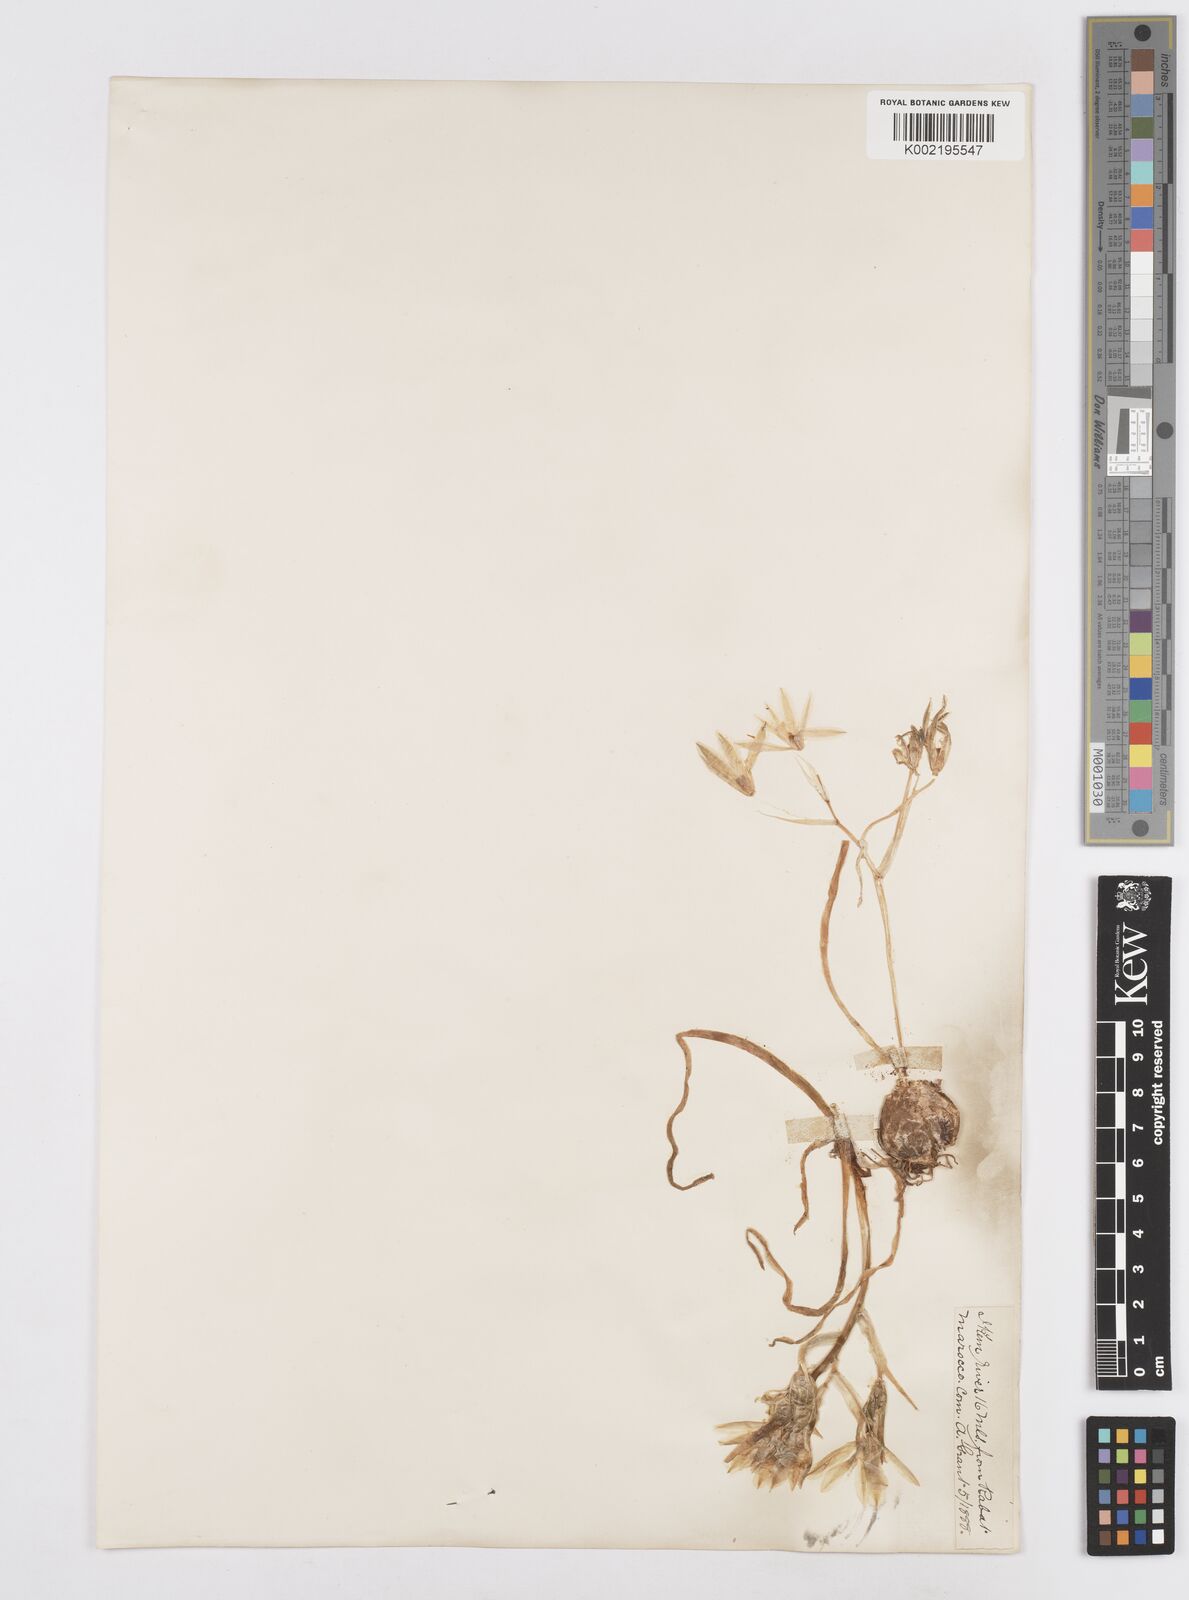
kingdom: Plantae
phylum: Tracheophyta
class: Liliopsida
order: Asparagales
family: Asparagaceae
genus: Ornithogalum
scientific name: Ornithogalum umbellatum
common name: Garden star-of-bethlehem
